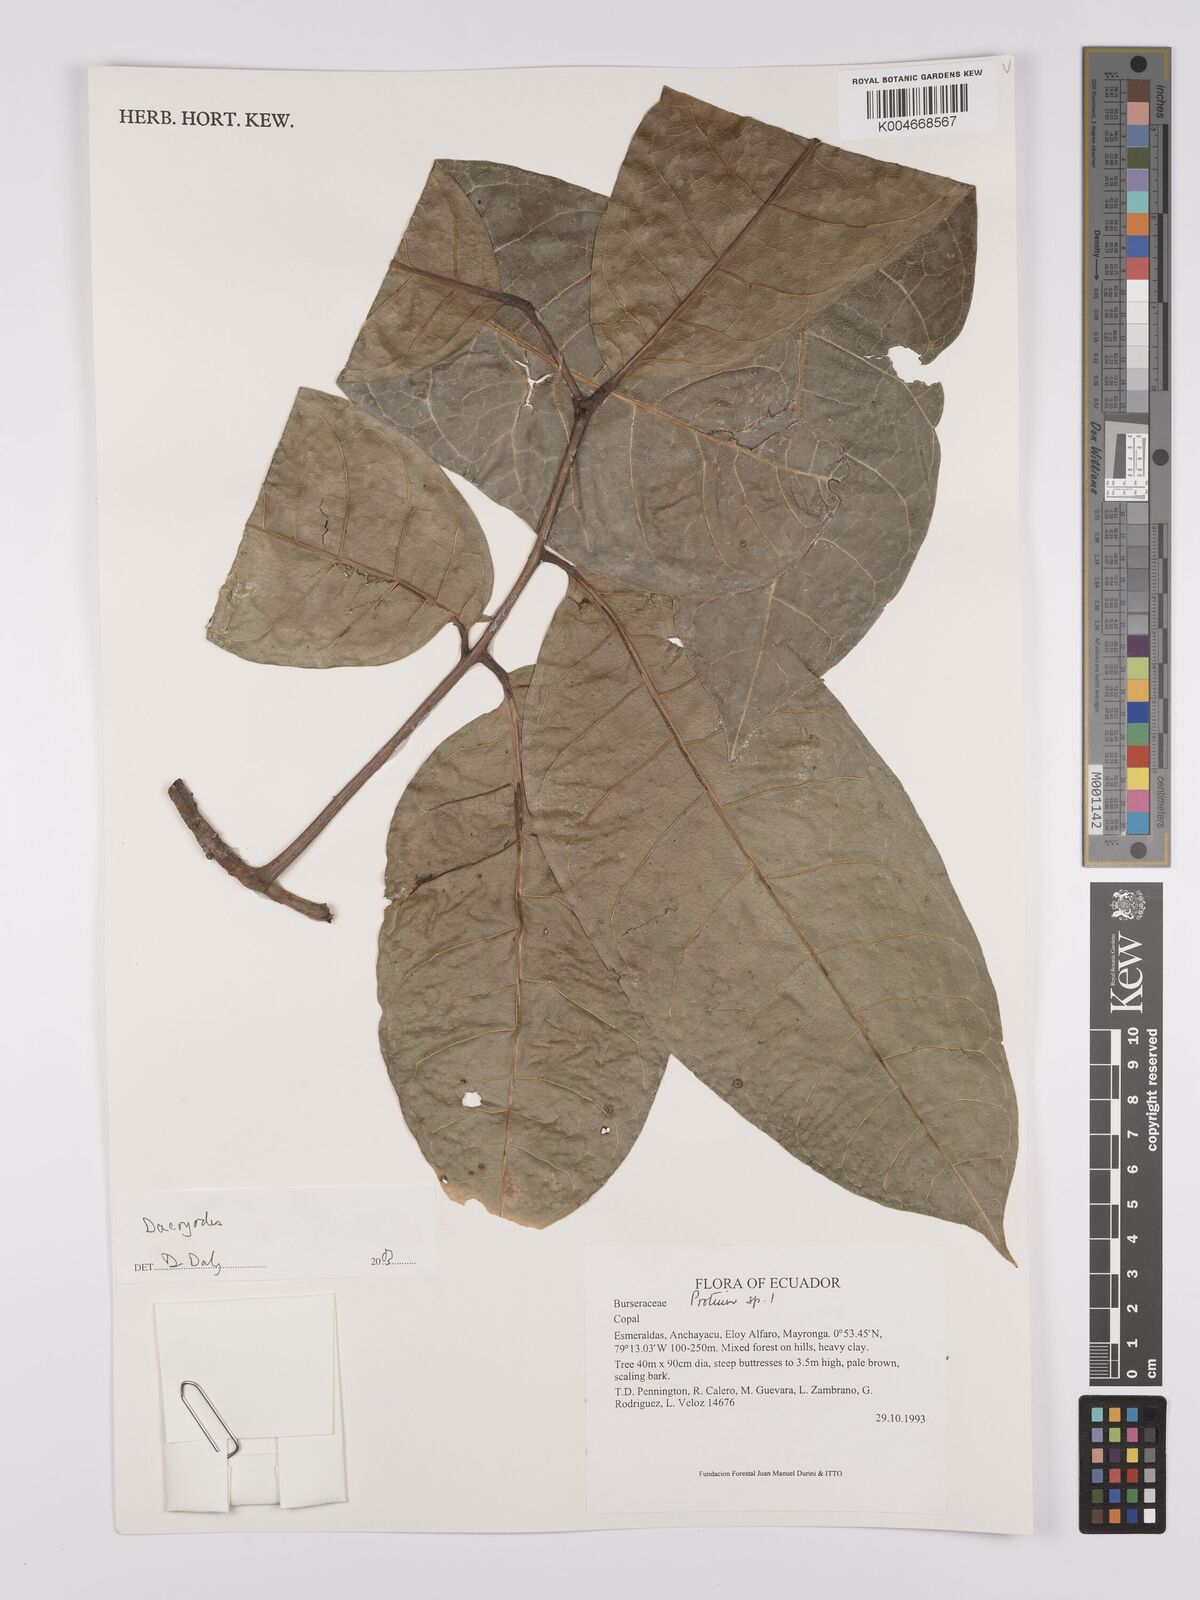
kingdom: Plantae
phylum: Tracheophyta
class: Magnoliopsida
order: Sapindales
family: Burseraceae
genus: Dacryodes
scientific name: Dacryodes
